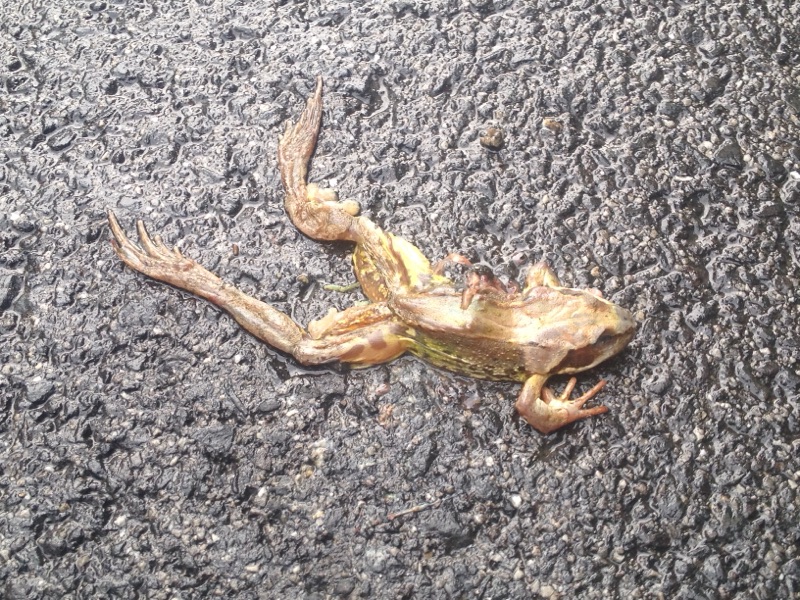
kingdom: Animalia
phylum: Chordata
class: Amphibia
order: Anura
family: Ranidae
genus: Rana
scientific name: Rana temporaria
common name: Common frog
